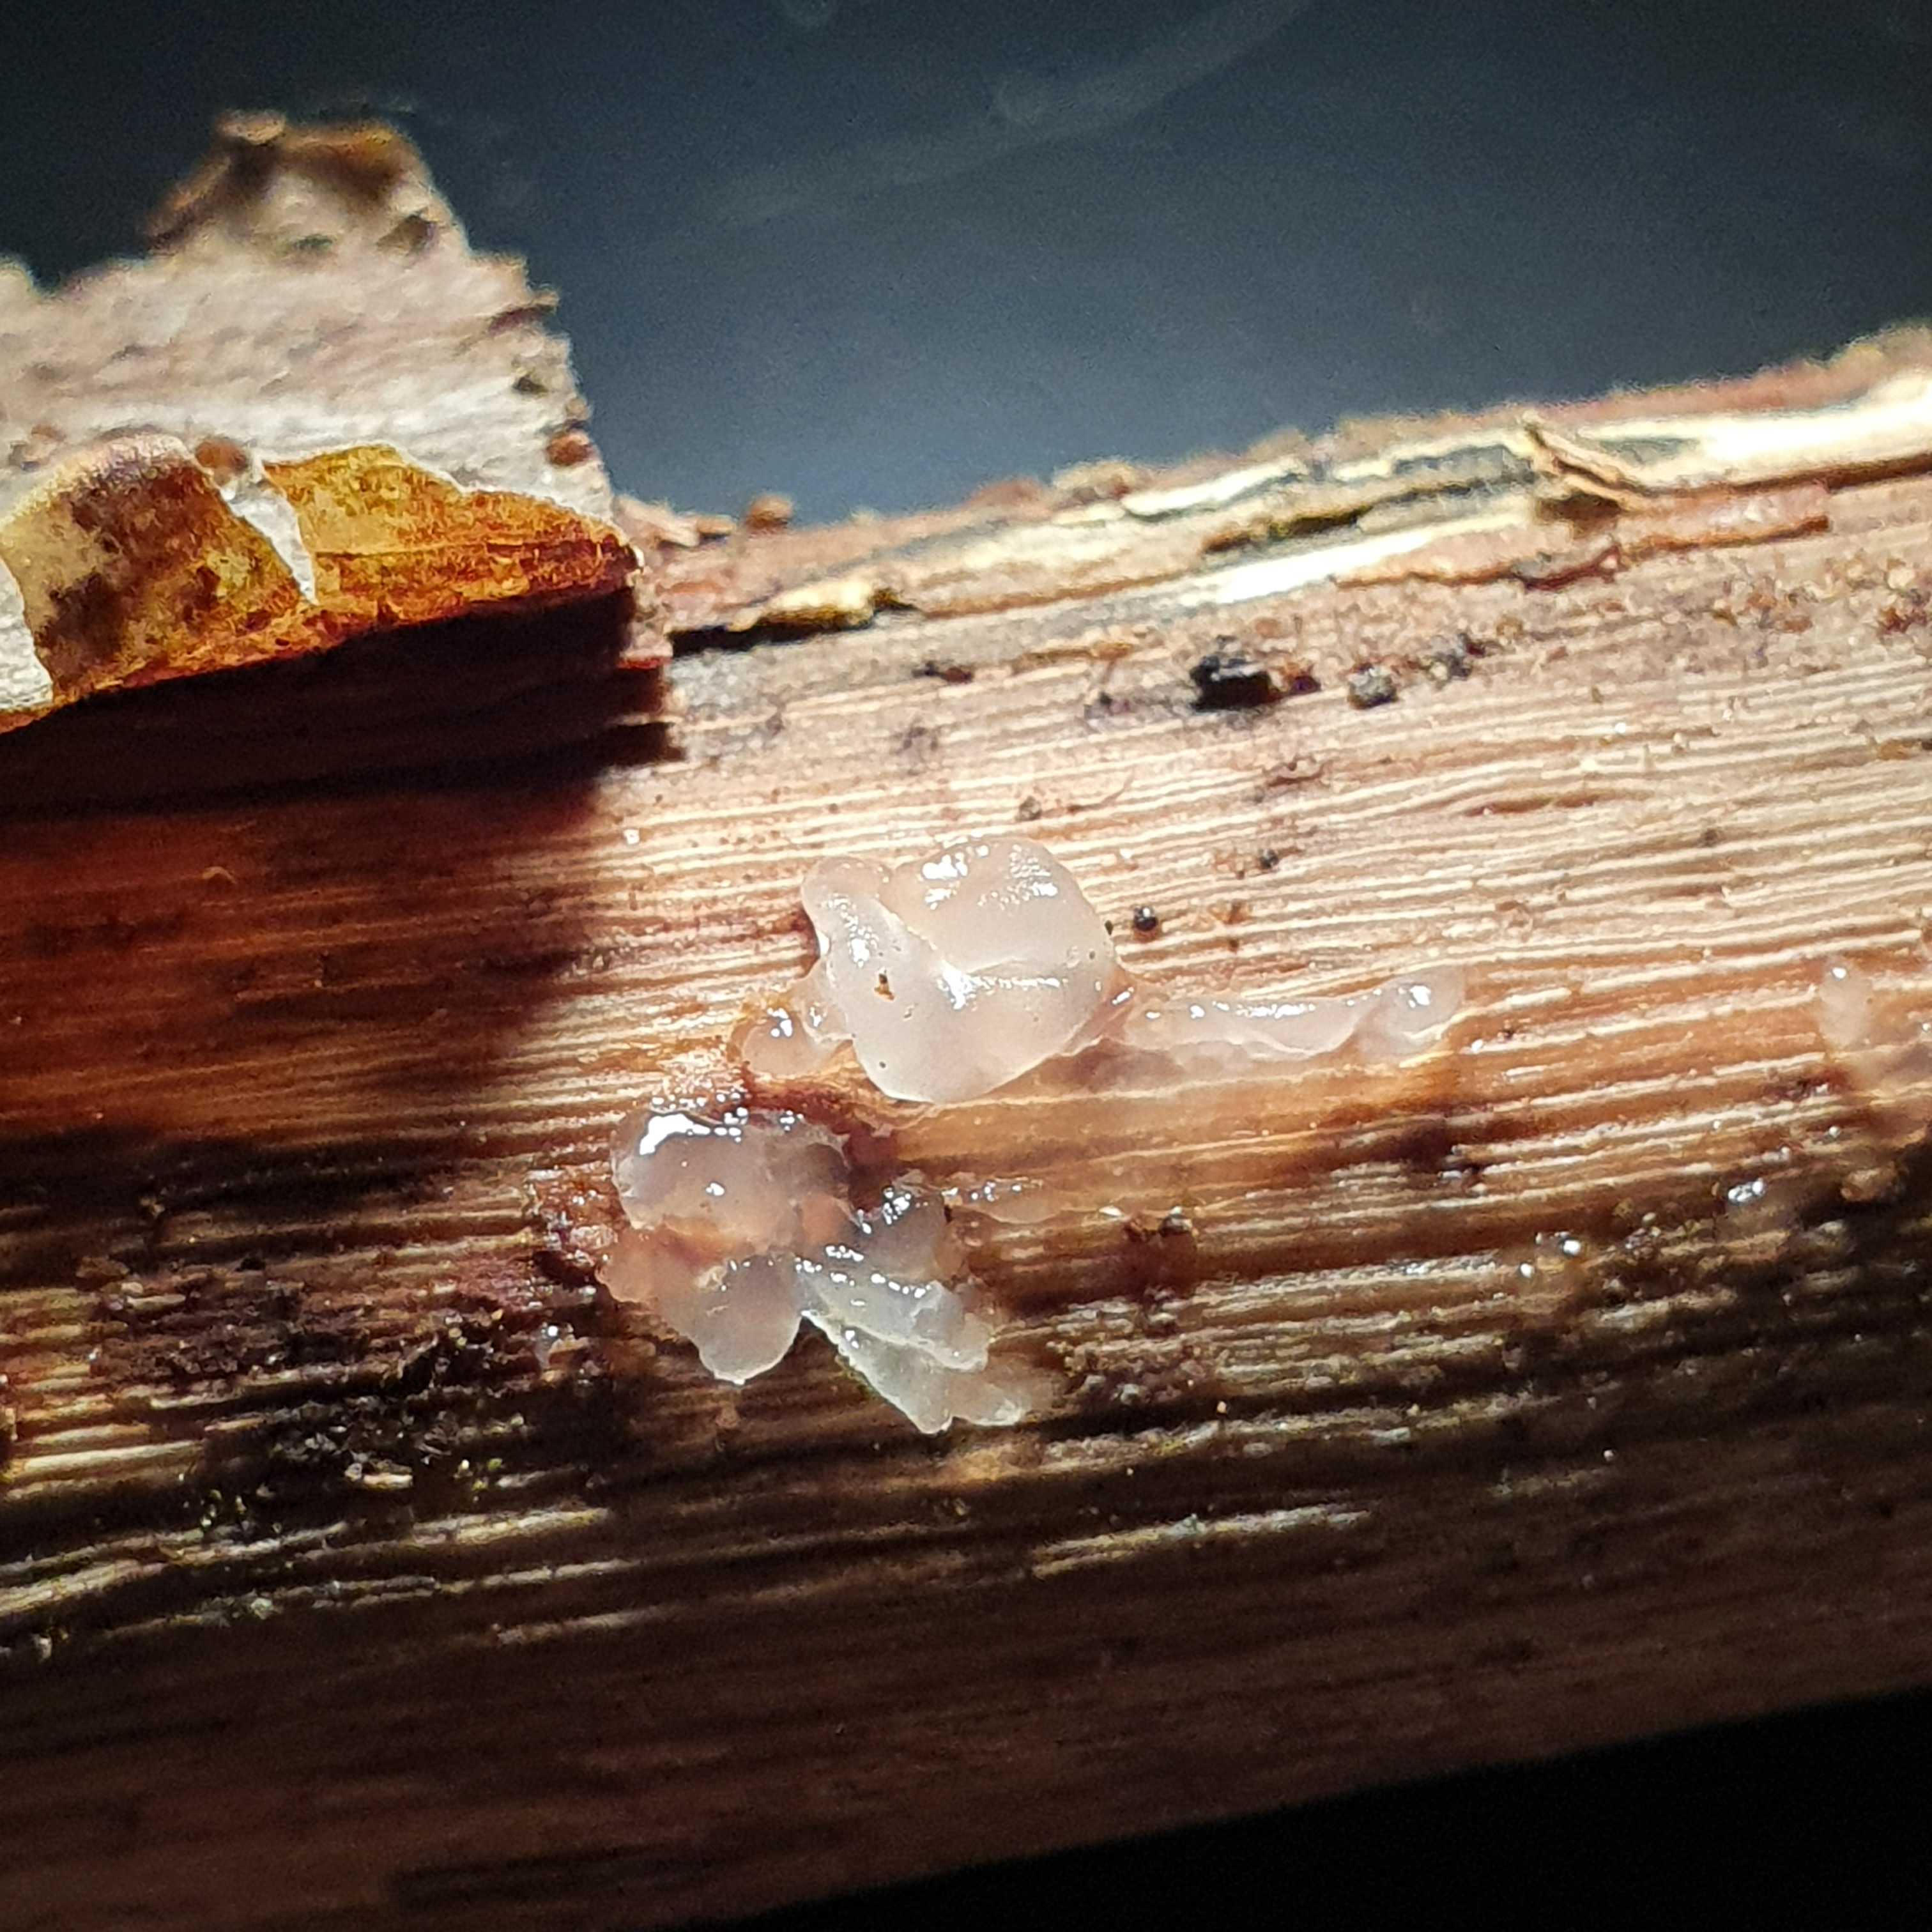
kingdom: Fungi
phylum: Basidiomycota
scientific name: Basidiomycota
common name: basidiesvampe
